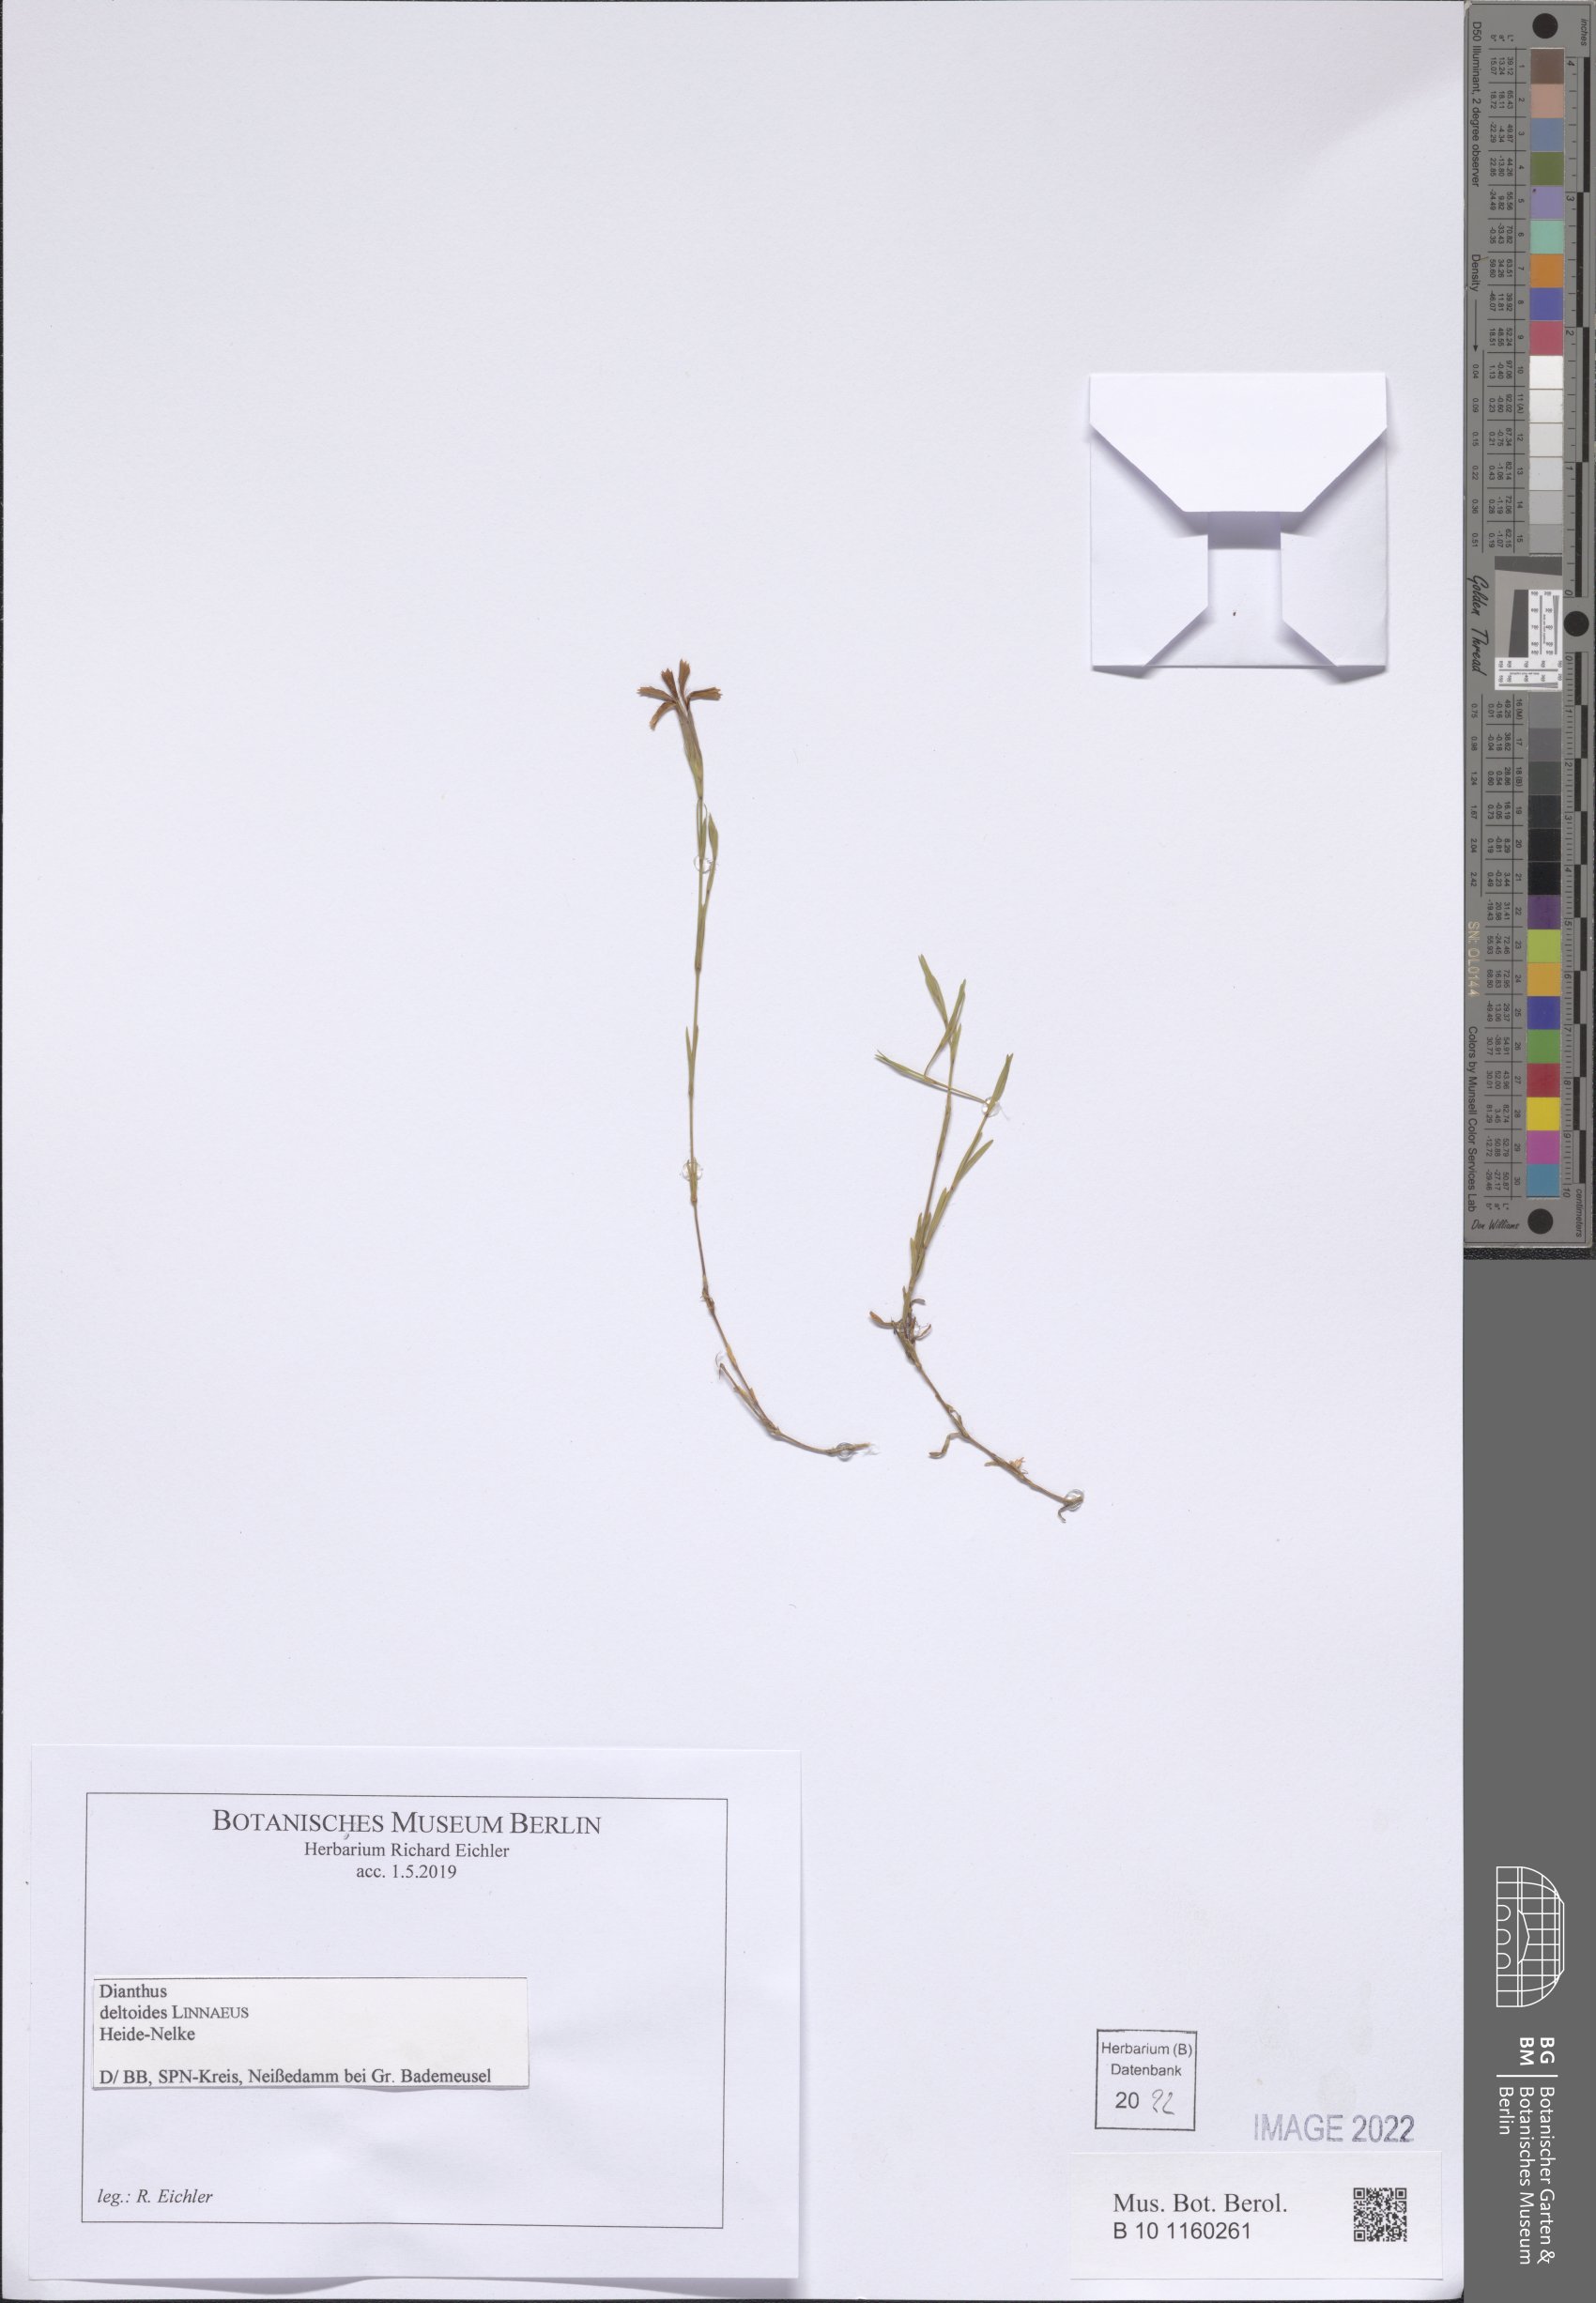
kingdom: Plantae
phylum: Tracheophyta
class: Magnoliopsida
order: Caryophyllales
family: Caryophyllaceae
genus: Dianthus
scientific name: Dianthus deltoides
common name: Maiden pink
